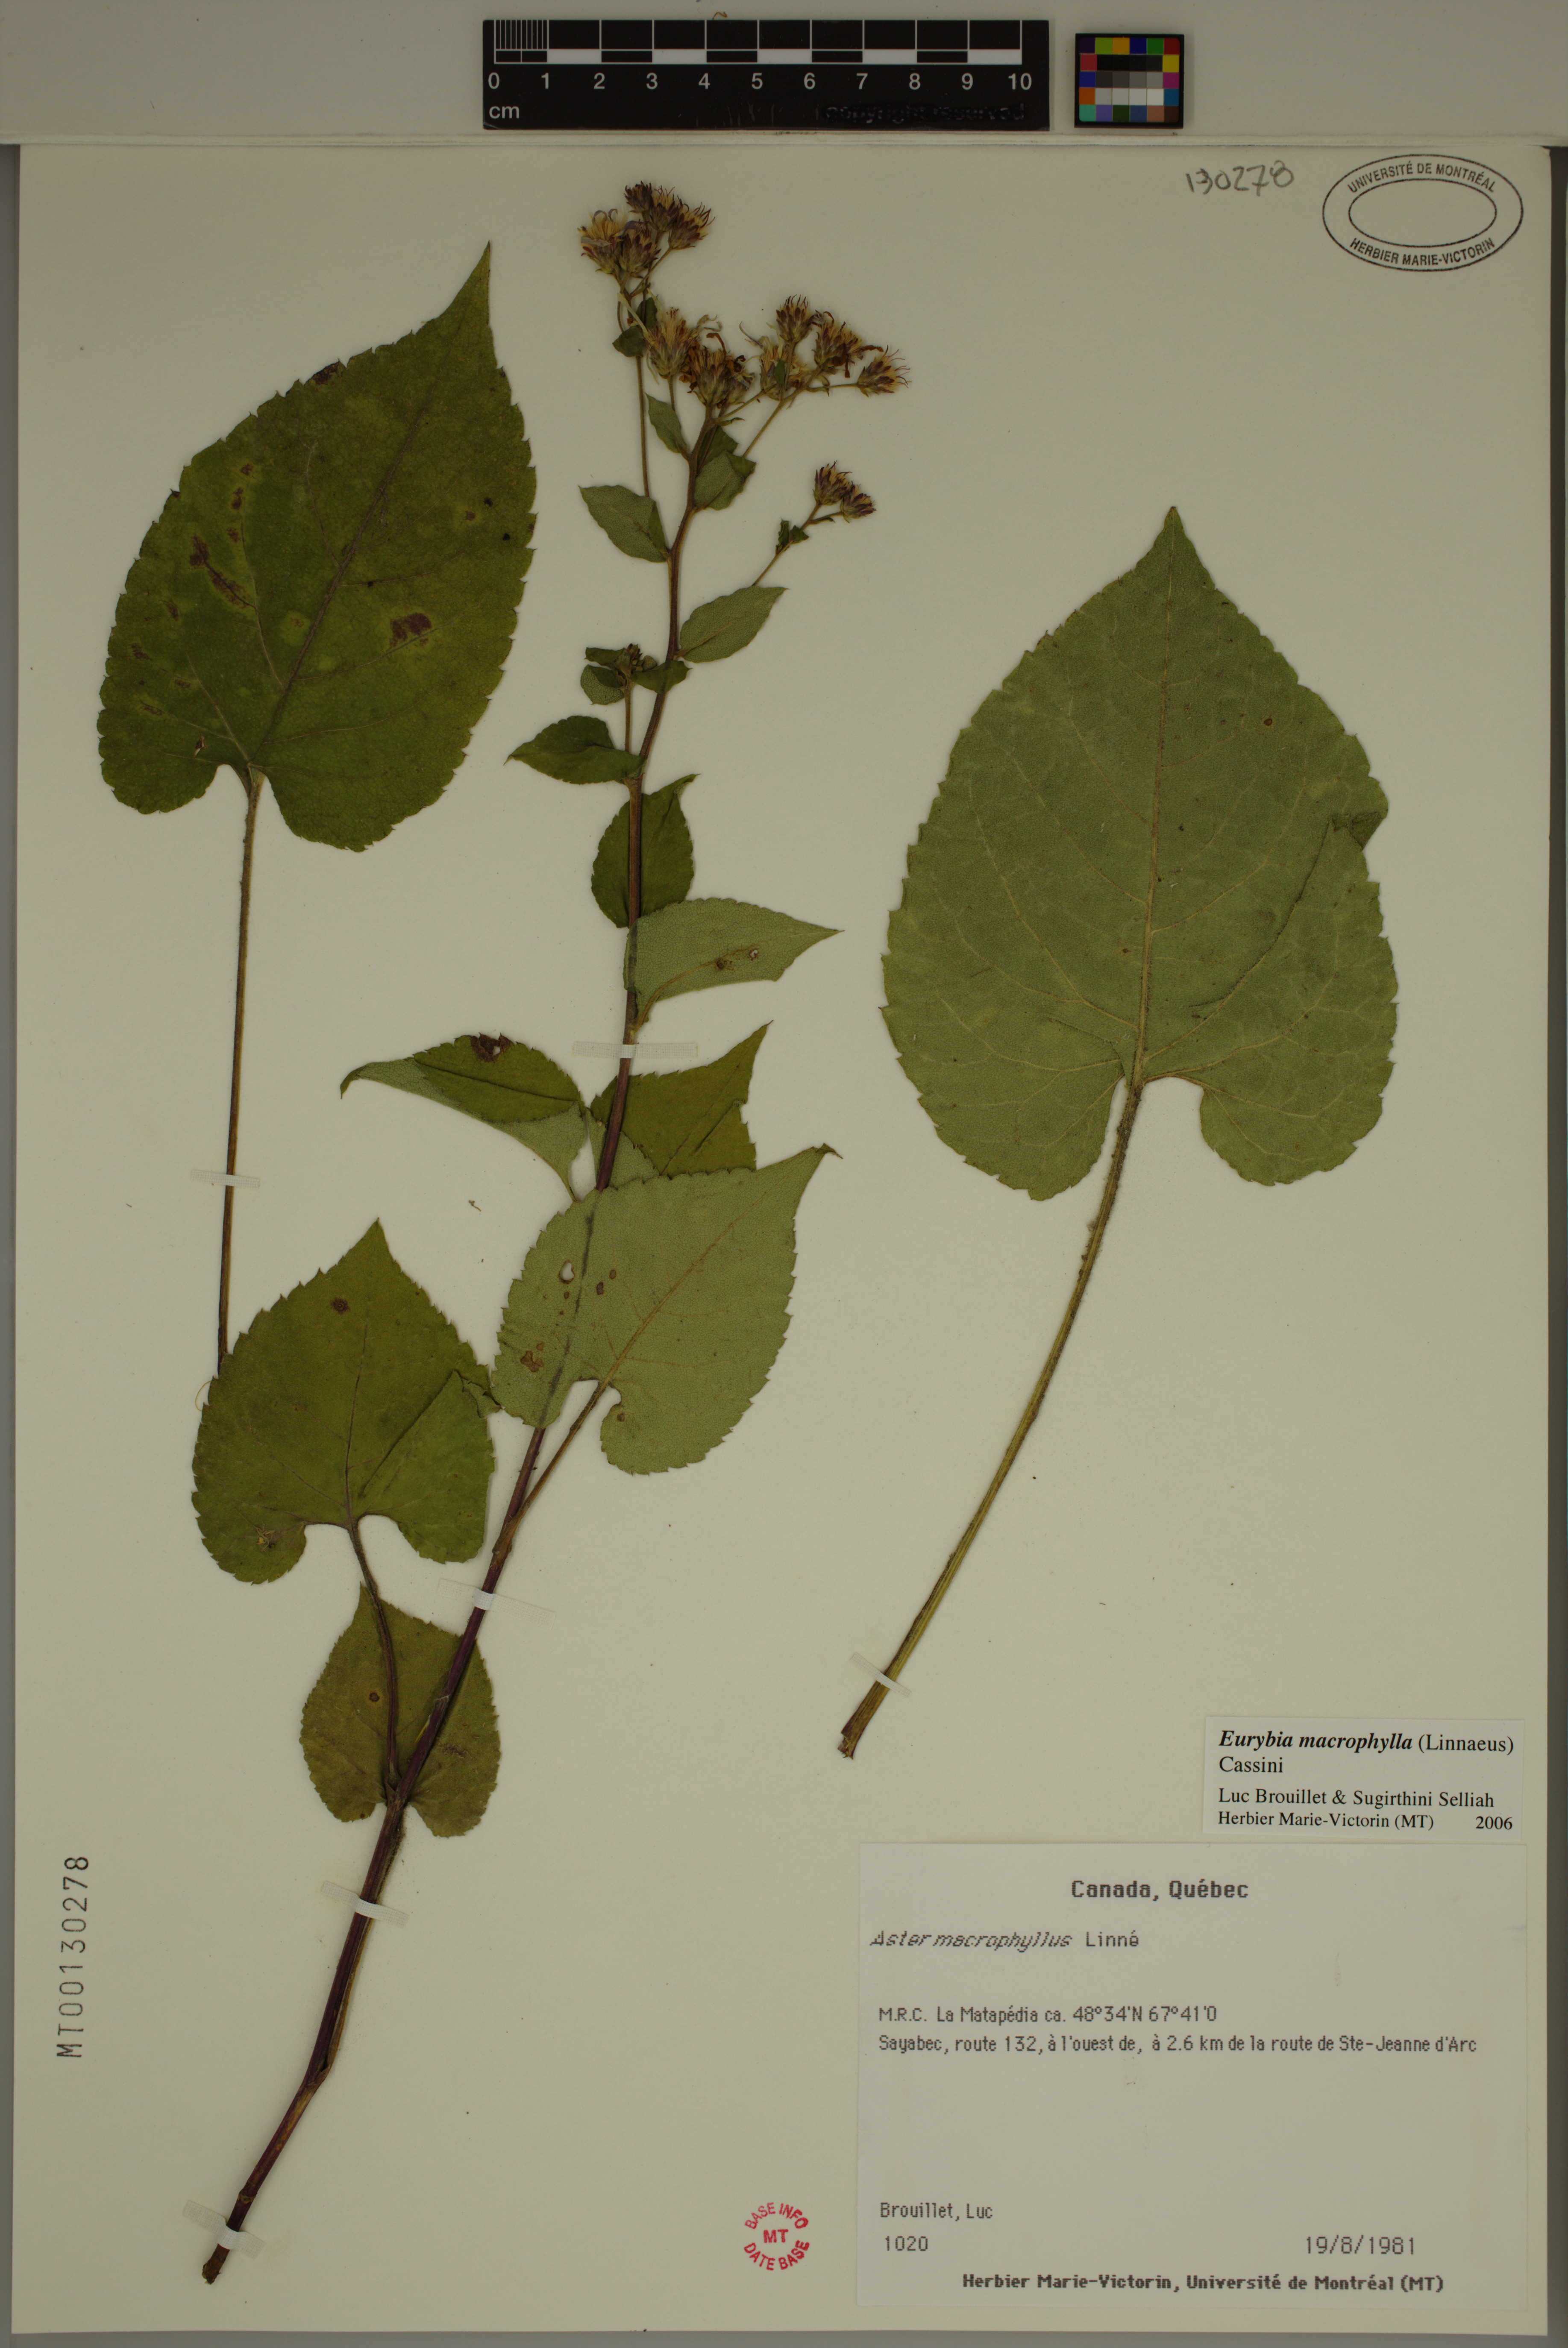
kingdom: Plantae
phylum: Tracheophyta
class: Magnoliopsida
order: Asterales
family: Asteraceae
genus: Eurybia
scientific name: Eurybia macrophylla
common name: Big-leaved aster
